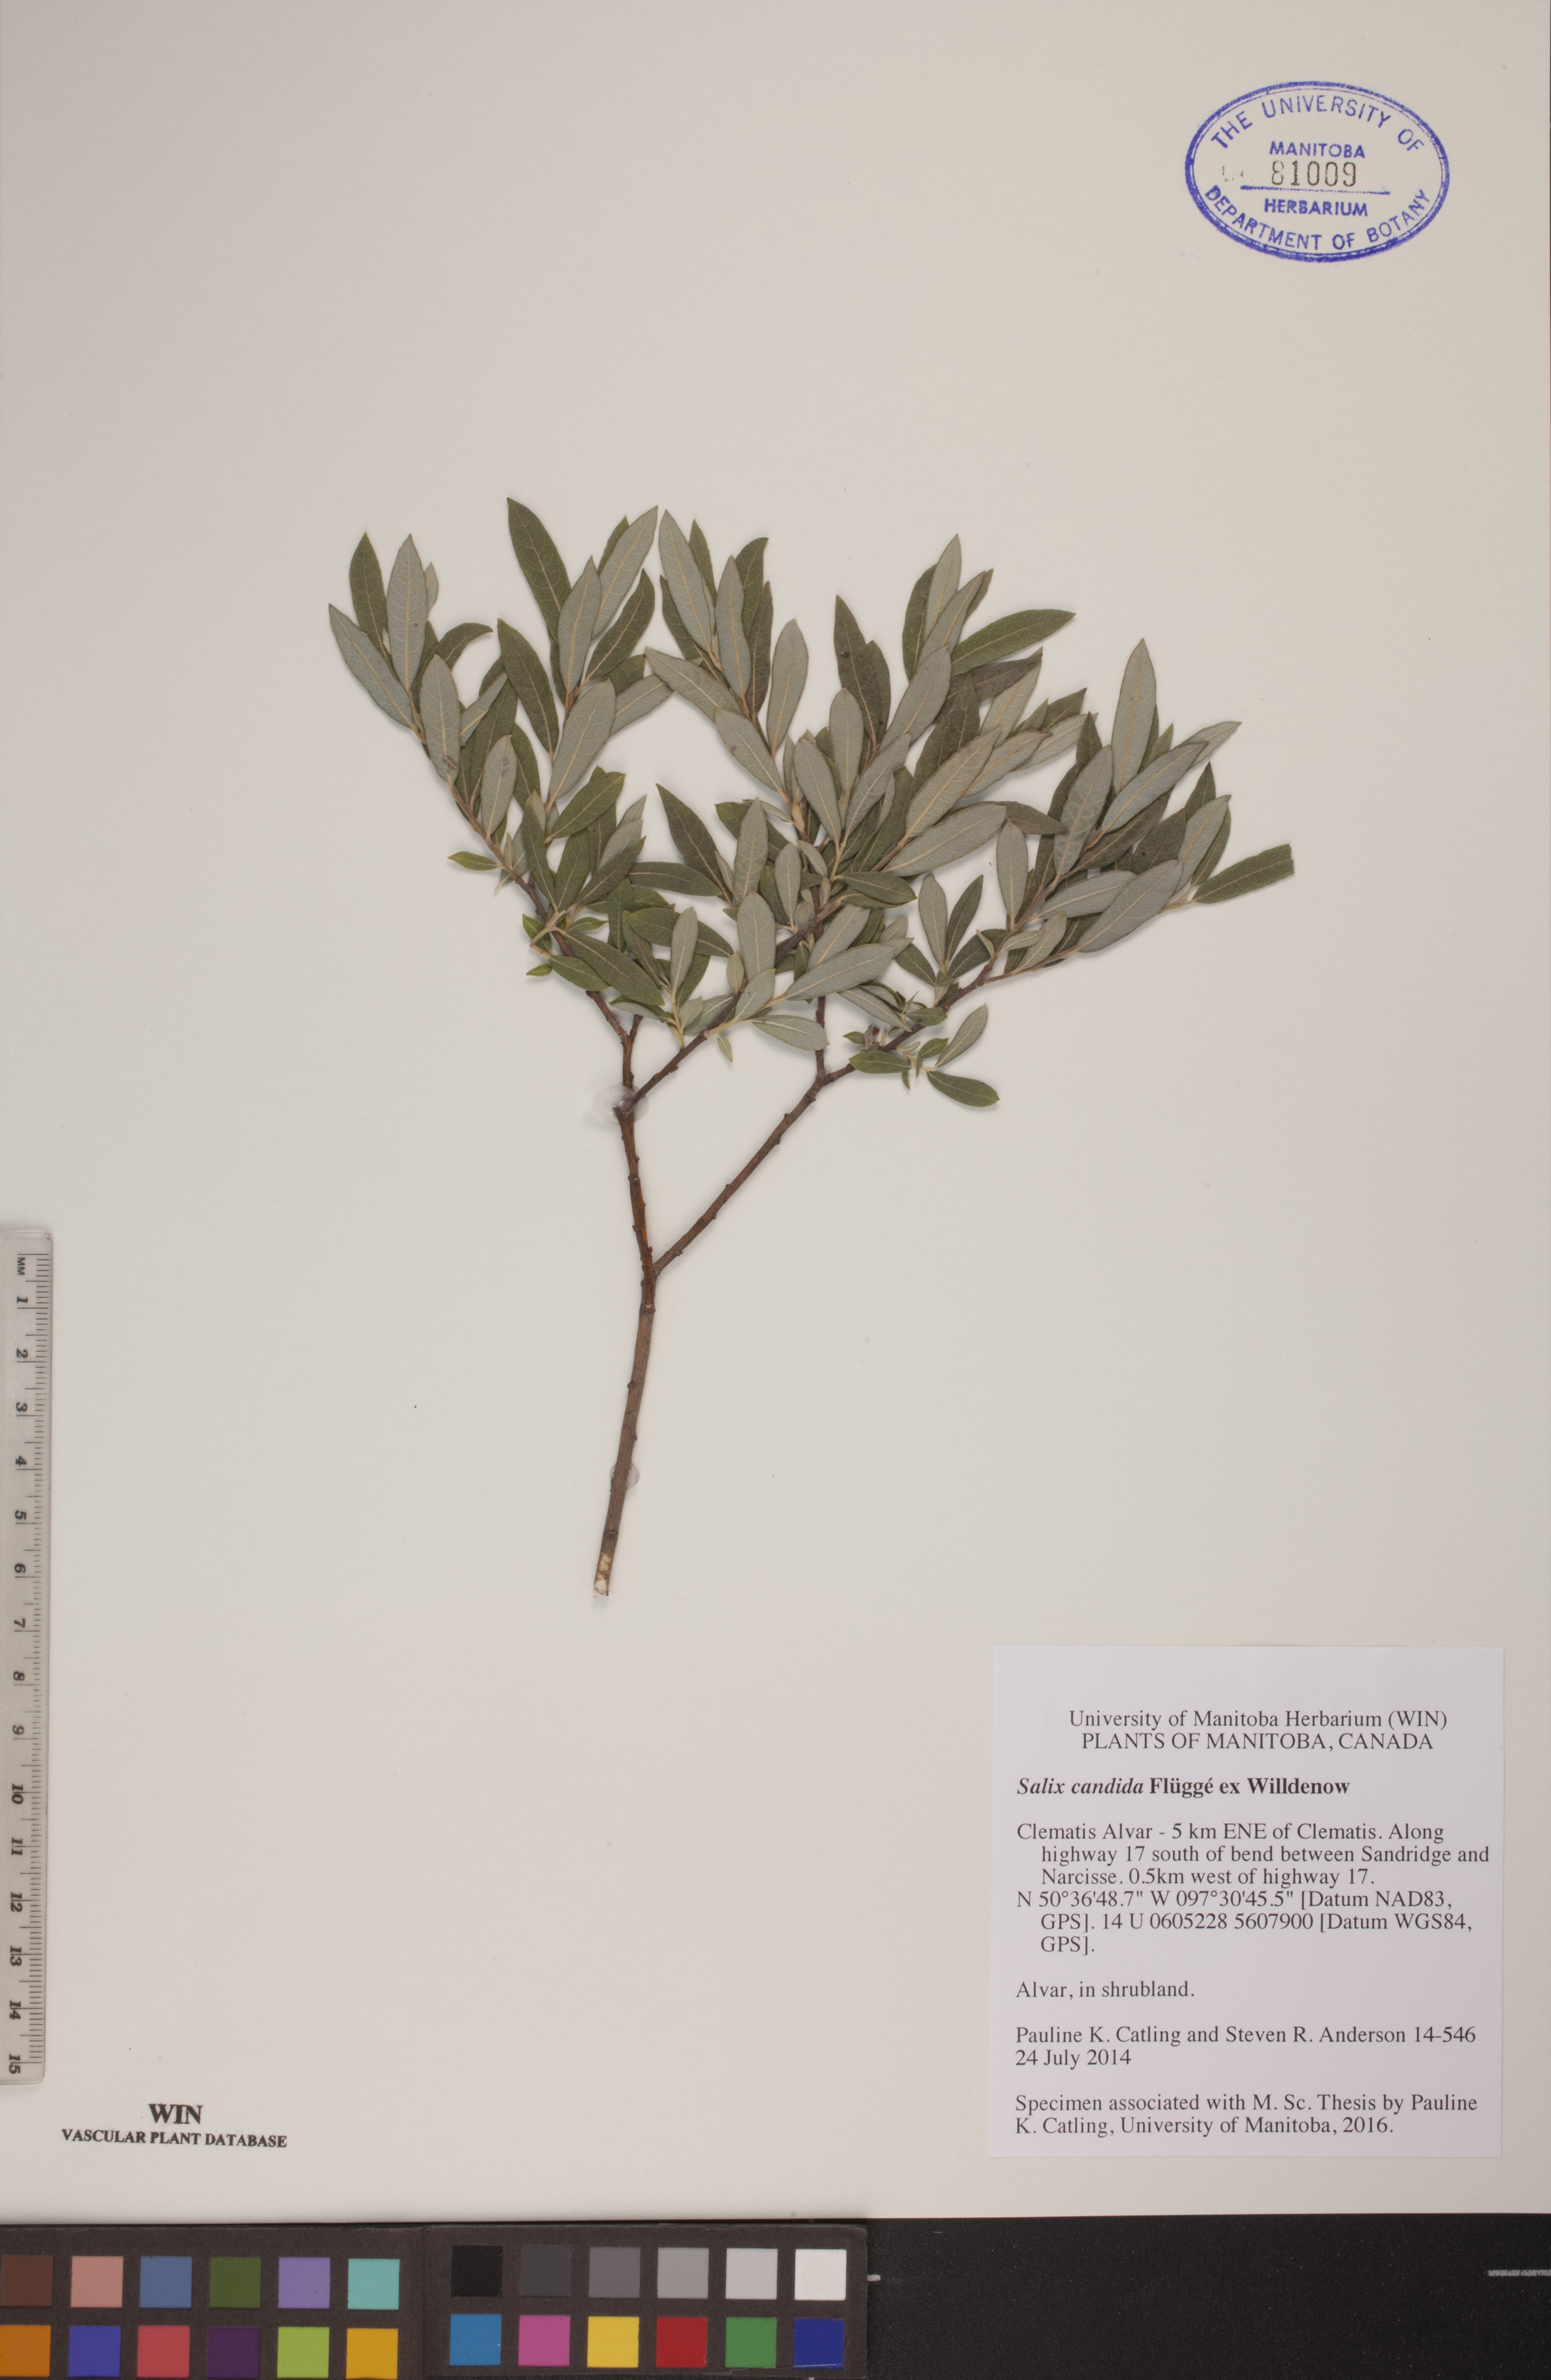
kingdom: Plantae
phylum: Tracheophyta
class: Magnoliopsida
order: Malpighiales
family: Salicaceae
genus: Salix
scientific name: Salix candida
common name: Hoary willow
